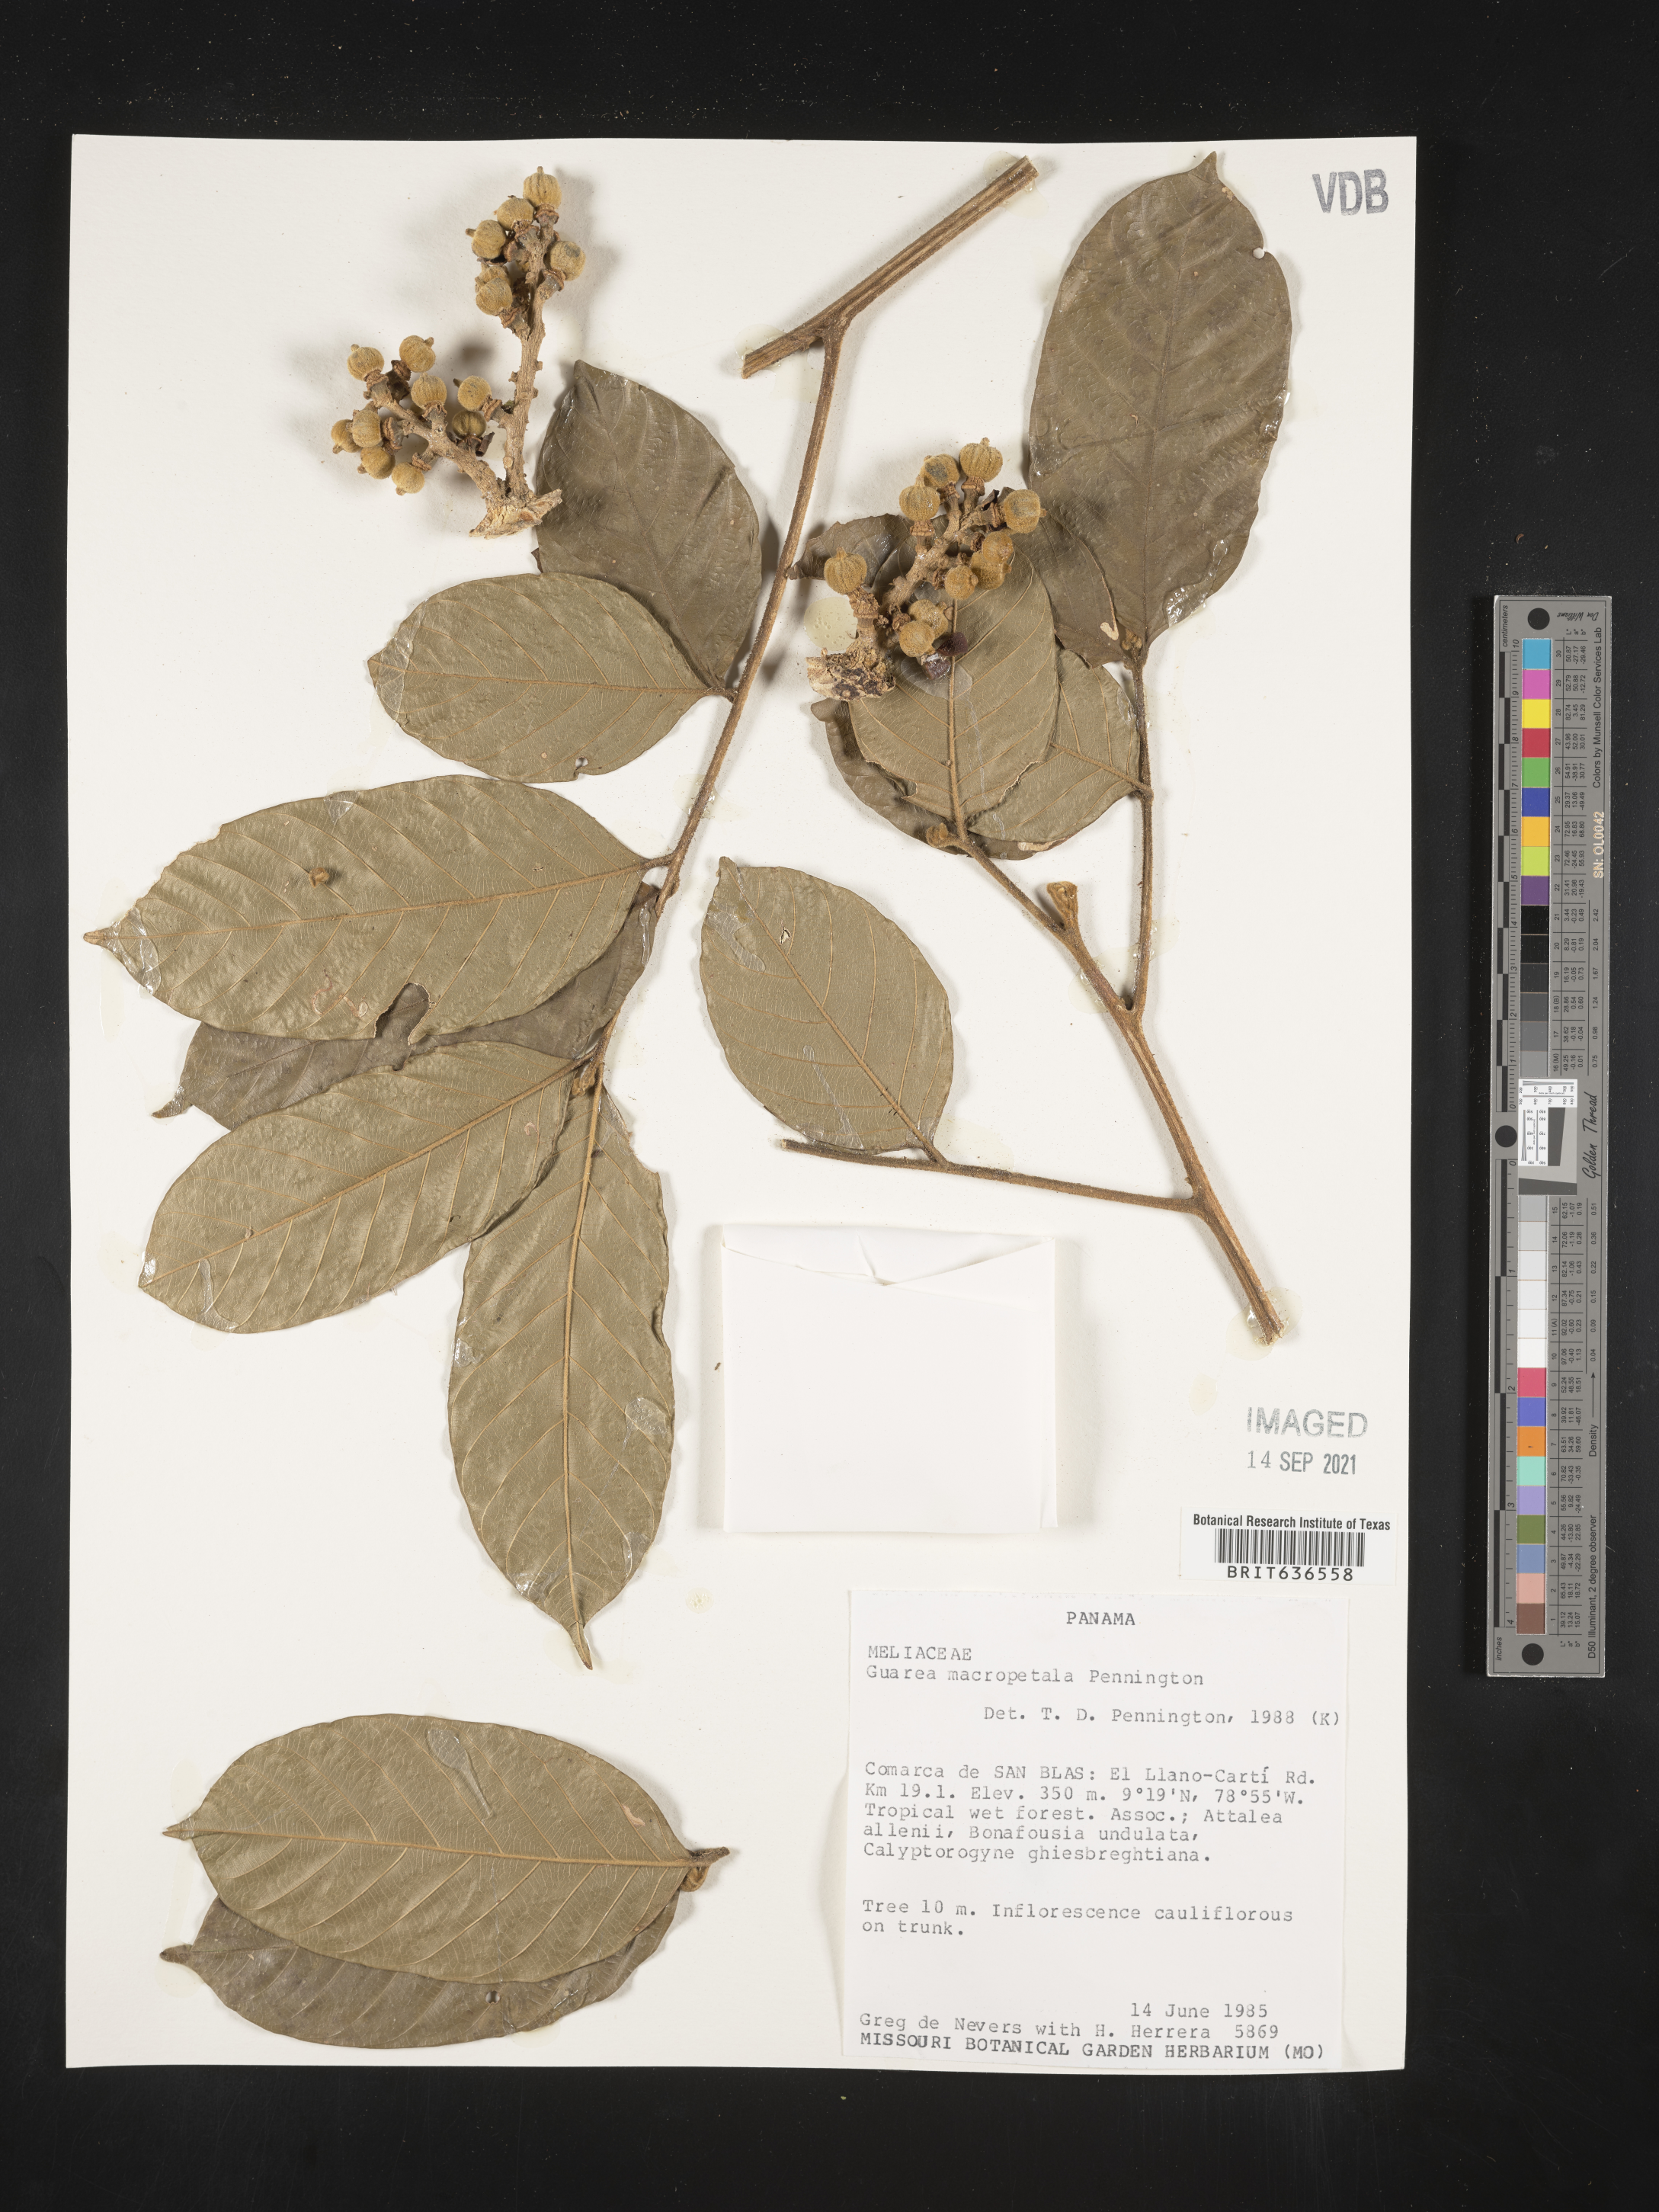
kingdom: Plantae
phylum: Tracheophyta
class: Magnoliopsida
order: Sapindales
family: Meliaceae
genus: Guarea
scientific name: Guarea
